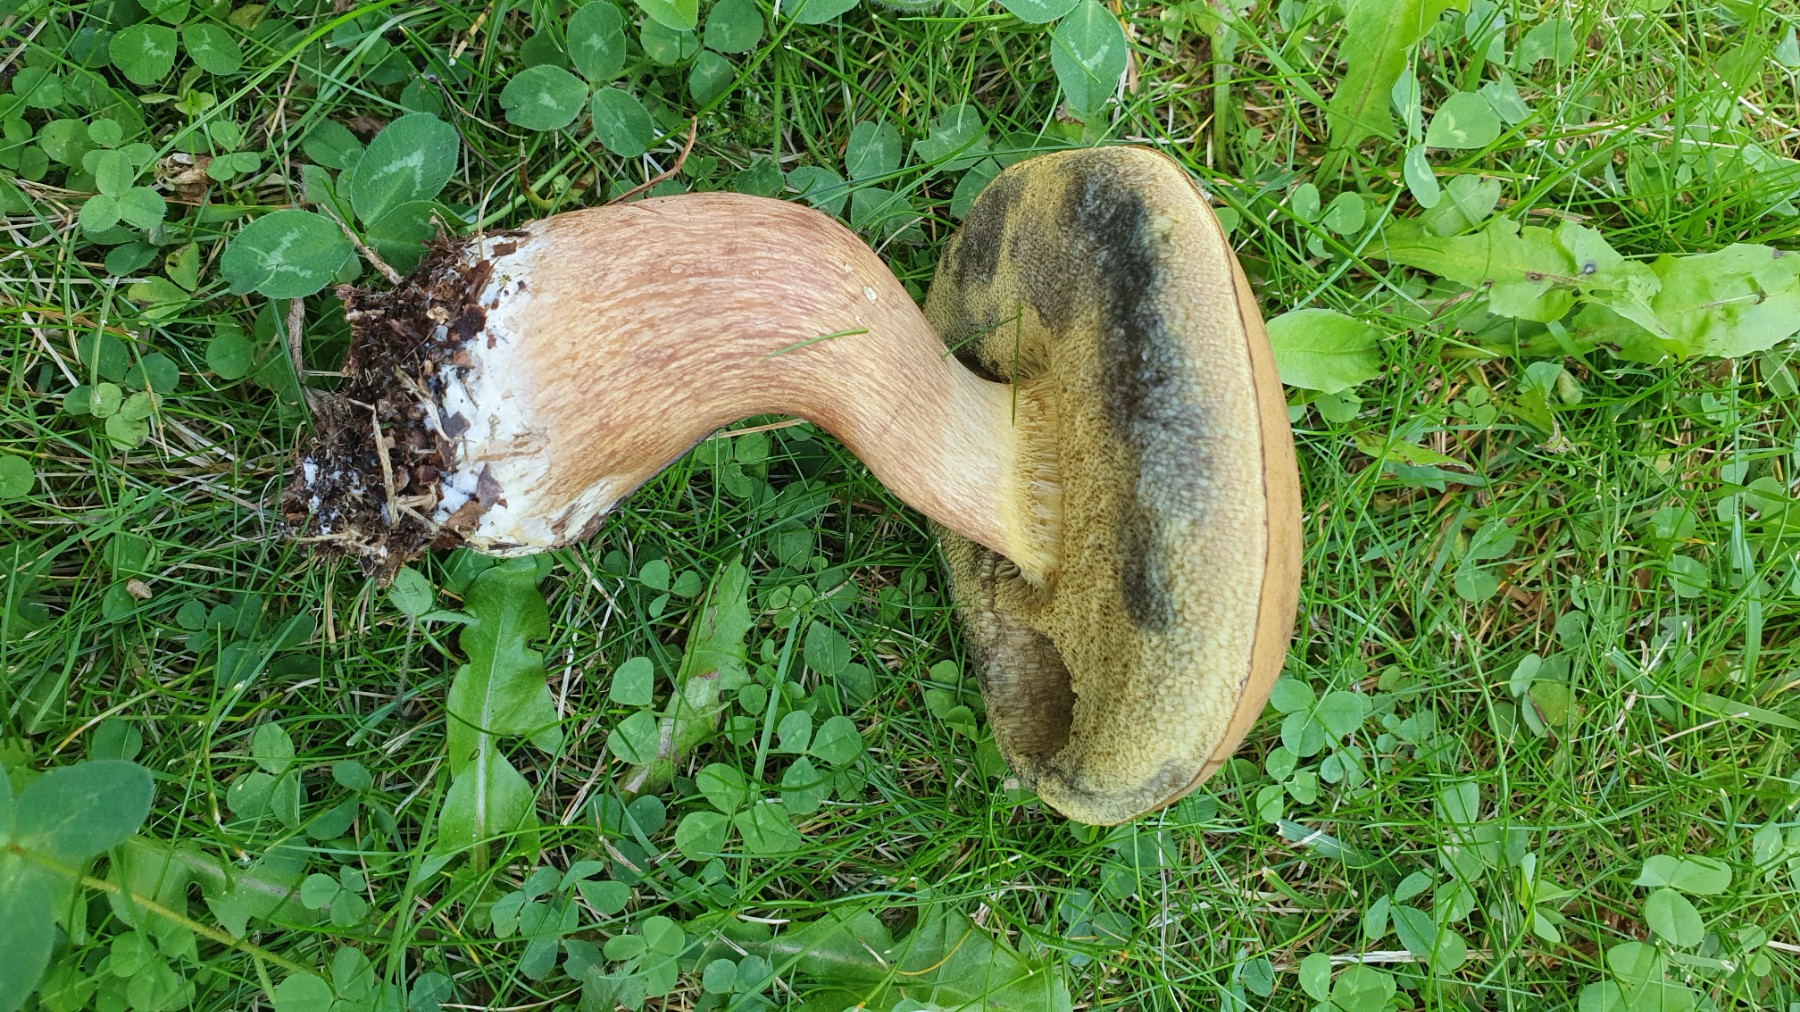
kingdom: Fungi
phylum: Basidiomycota
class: Agaricomycetes
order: Boletales
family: Boletaceae
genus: Imleria
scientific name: Imleria badia
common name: brunstokket rørhat
